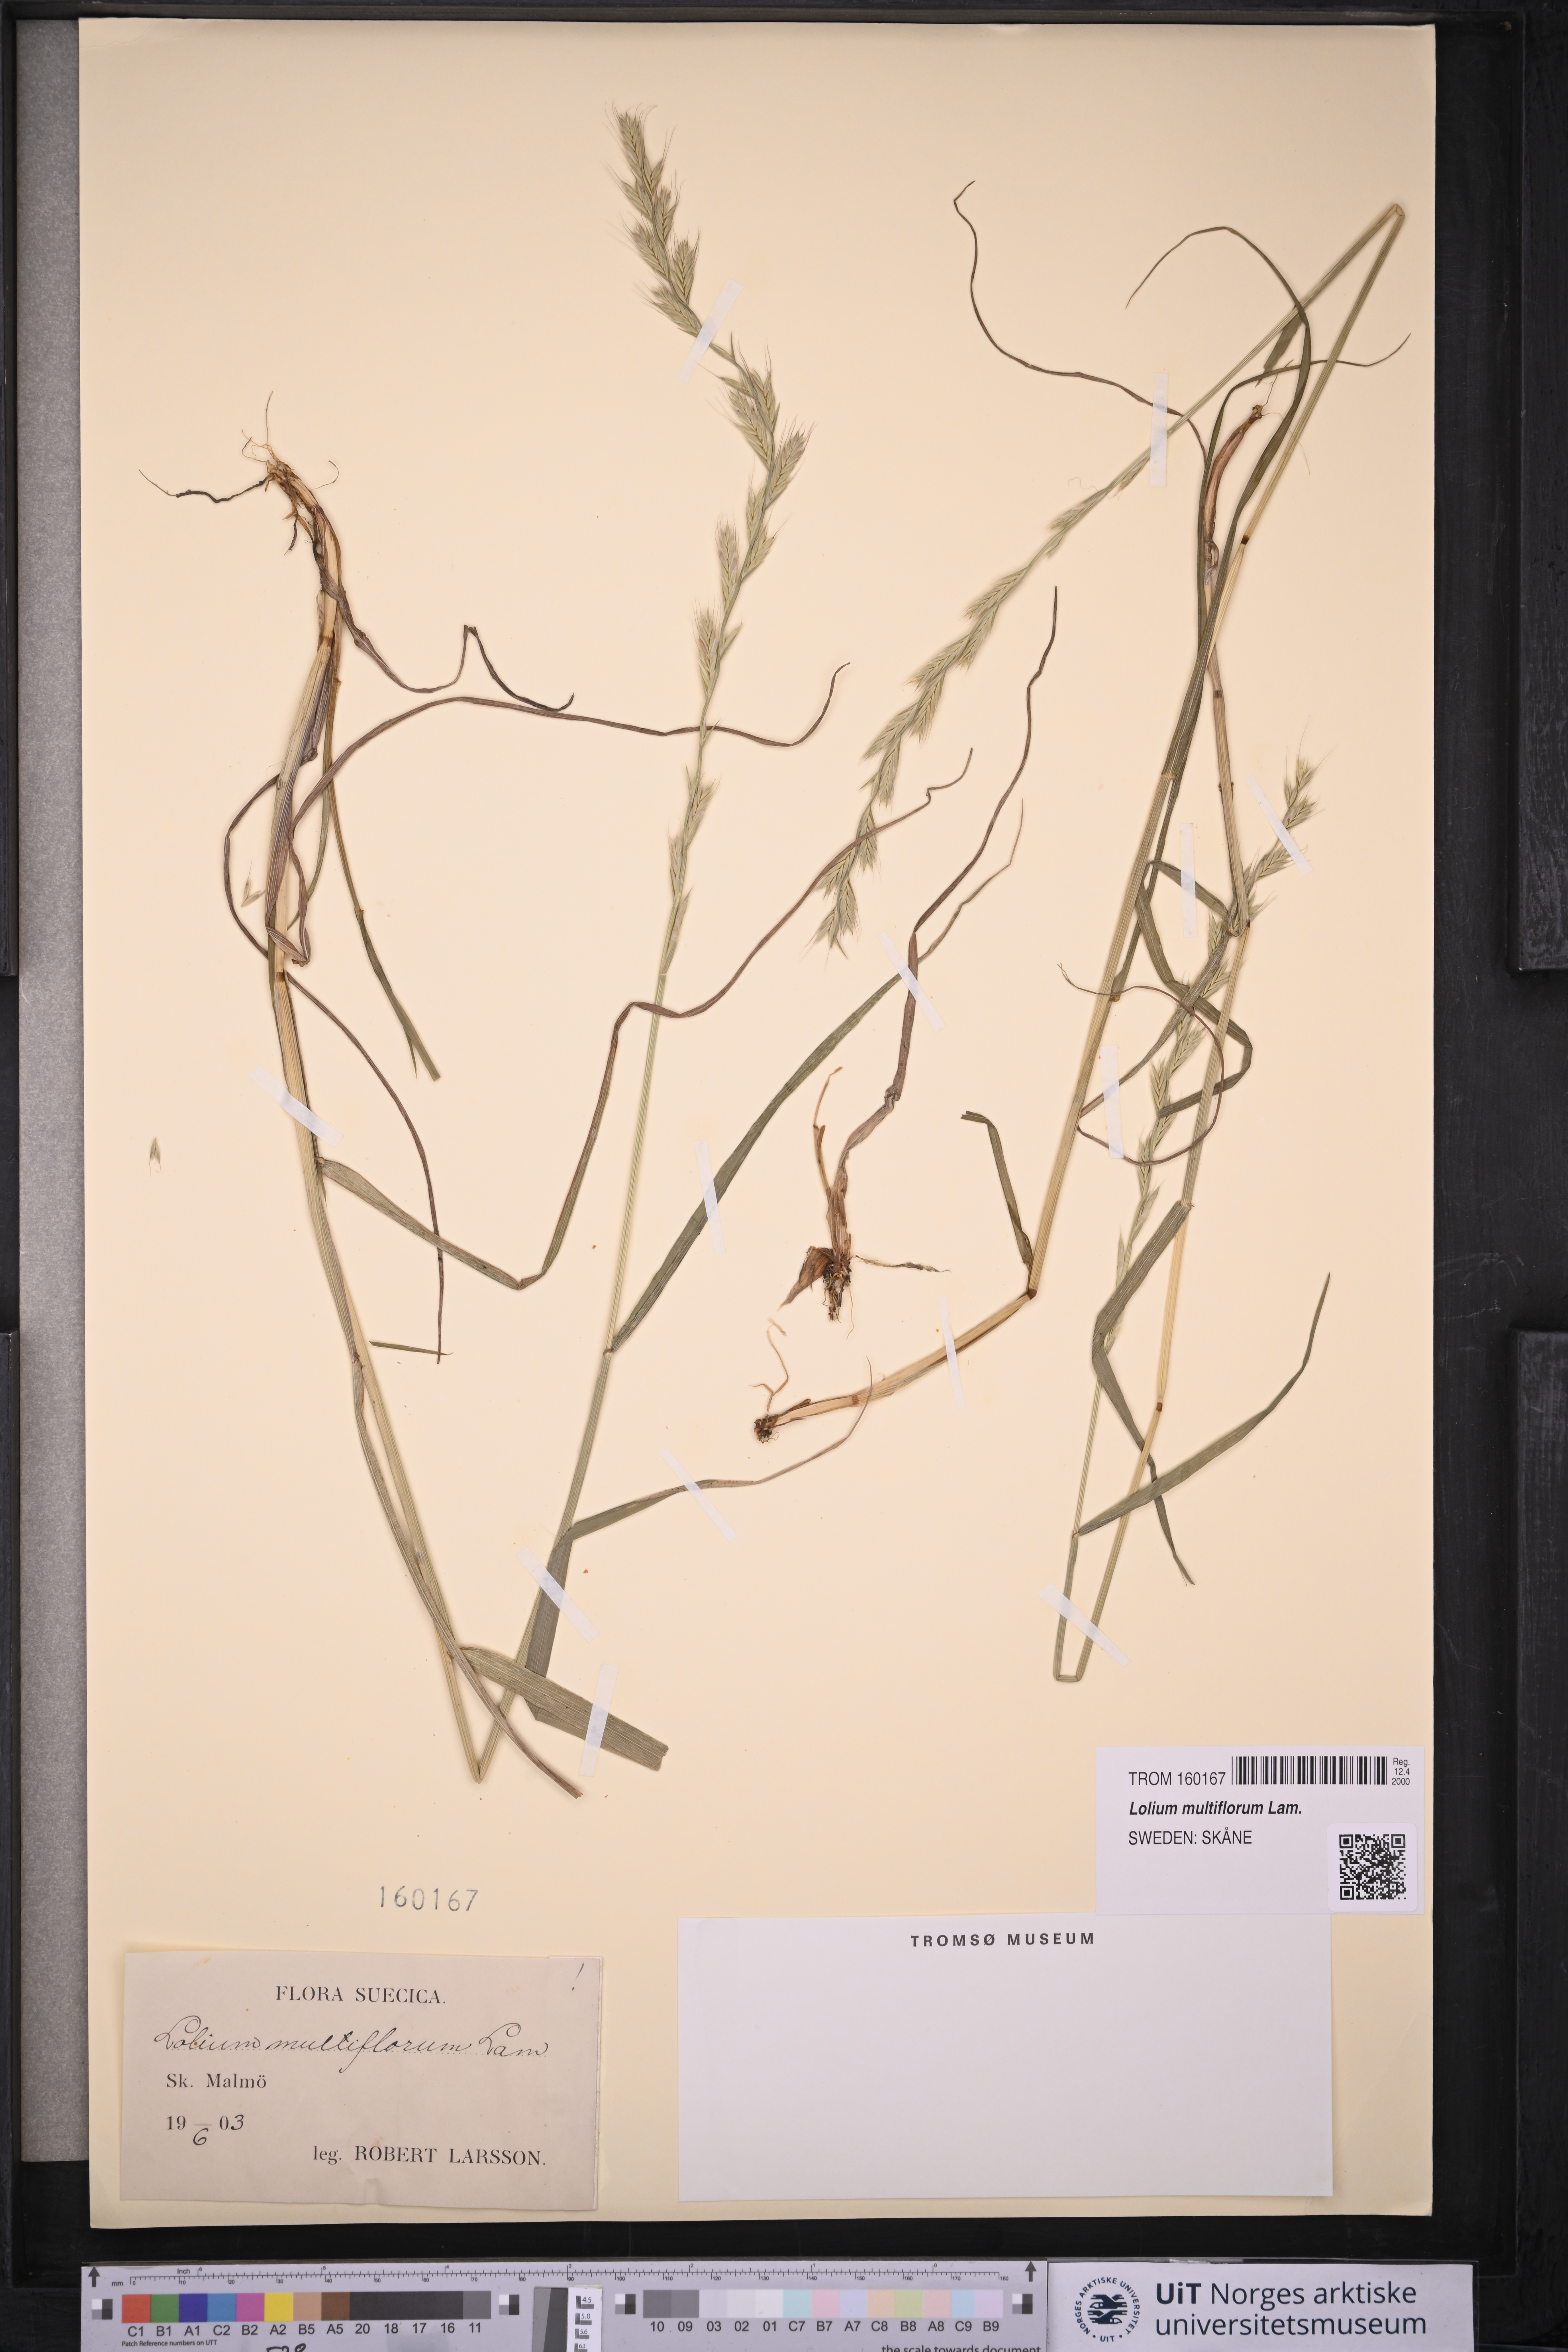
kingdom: Plantae
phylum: Tracheophyta
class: Liliopsida
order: Poales
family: Poaceae
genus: Lolium
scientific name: Lolium multiflorum
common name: Annual ryegrass
